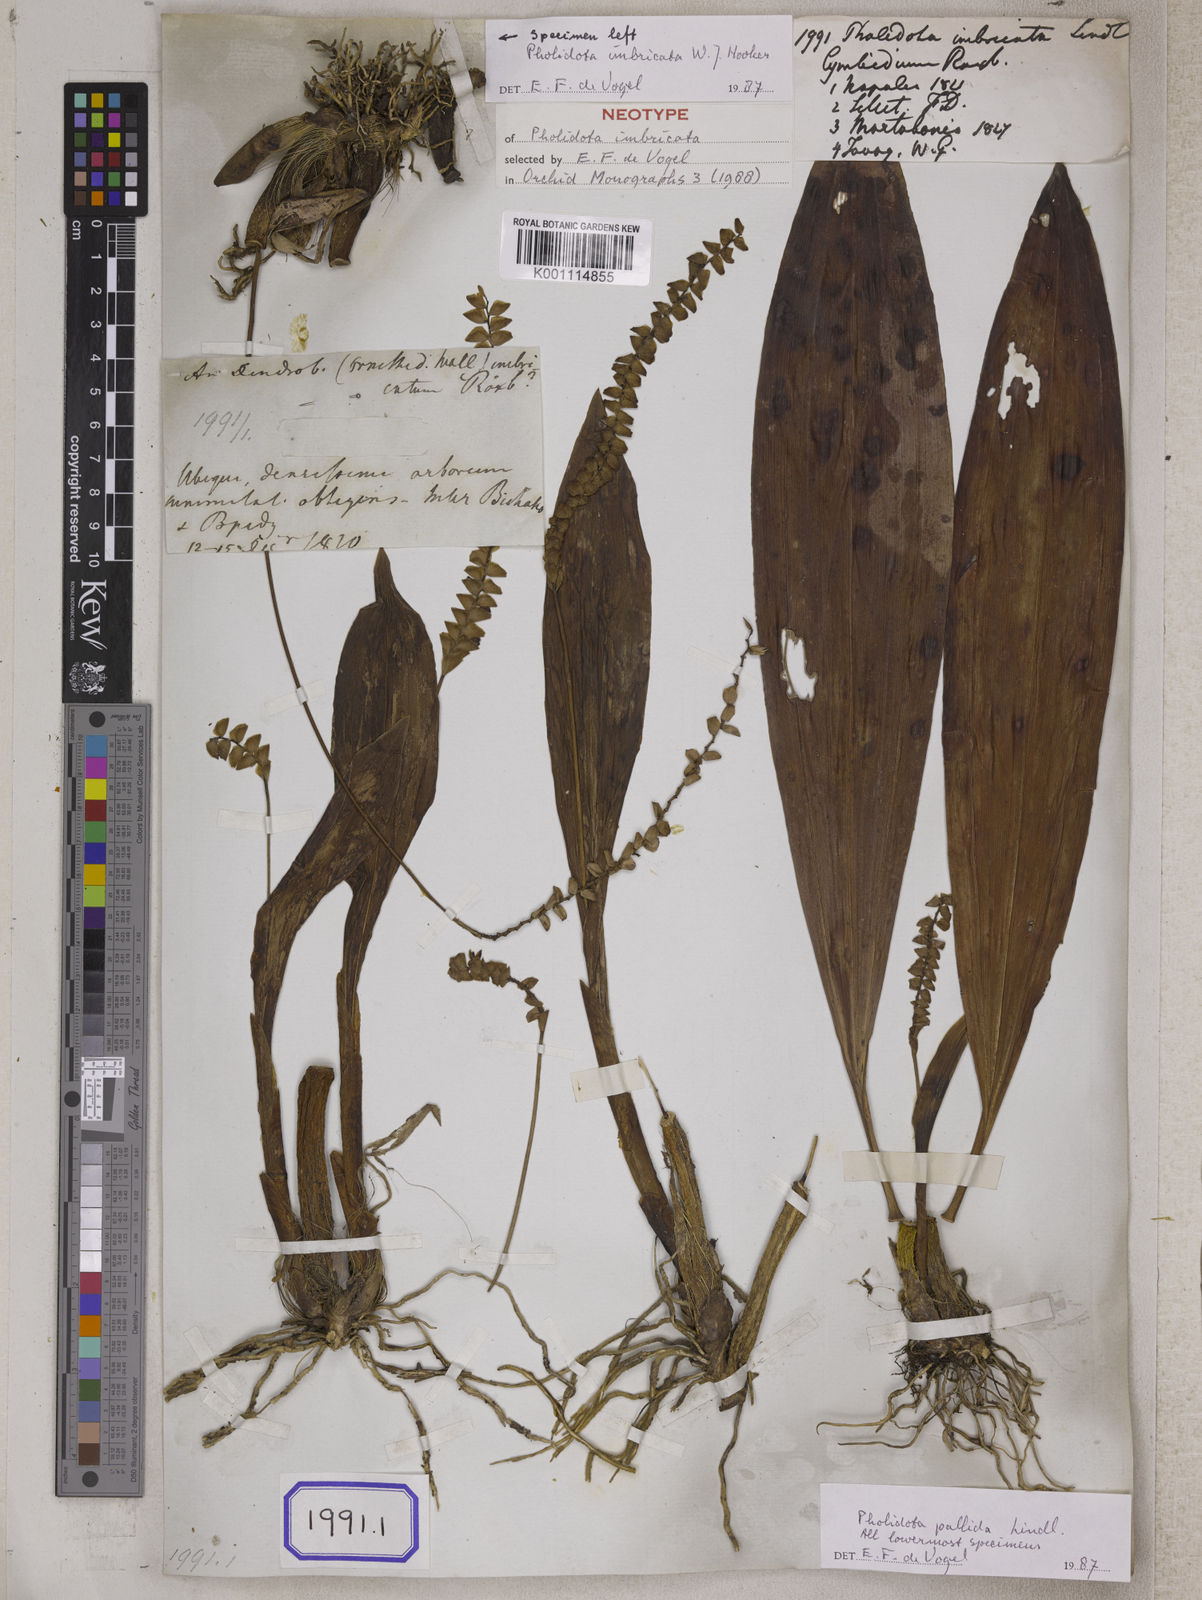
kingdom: Plantae
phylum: Tracheophyta
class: Liliopsida
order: Asparagales
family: Orchidaceae
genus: Pholidota
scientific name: Pholidota
